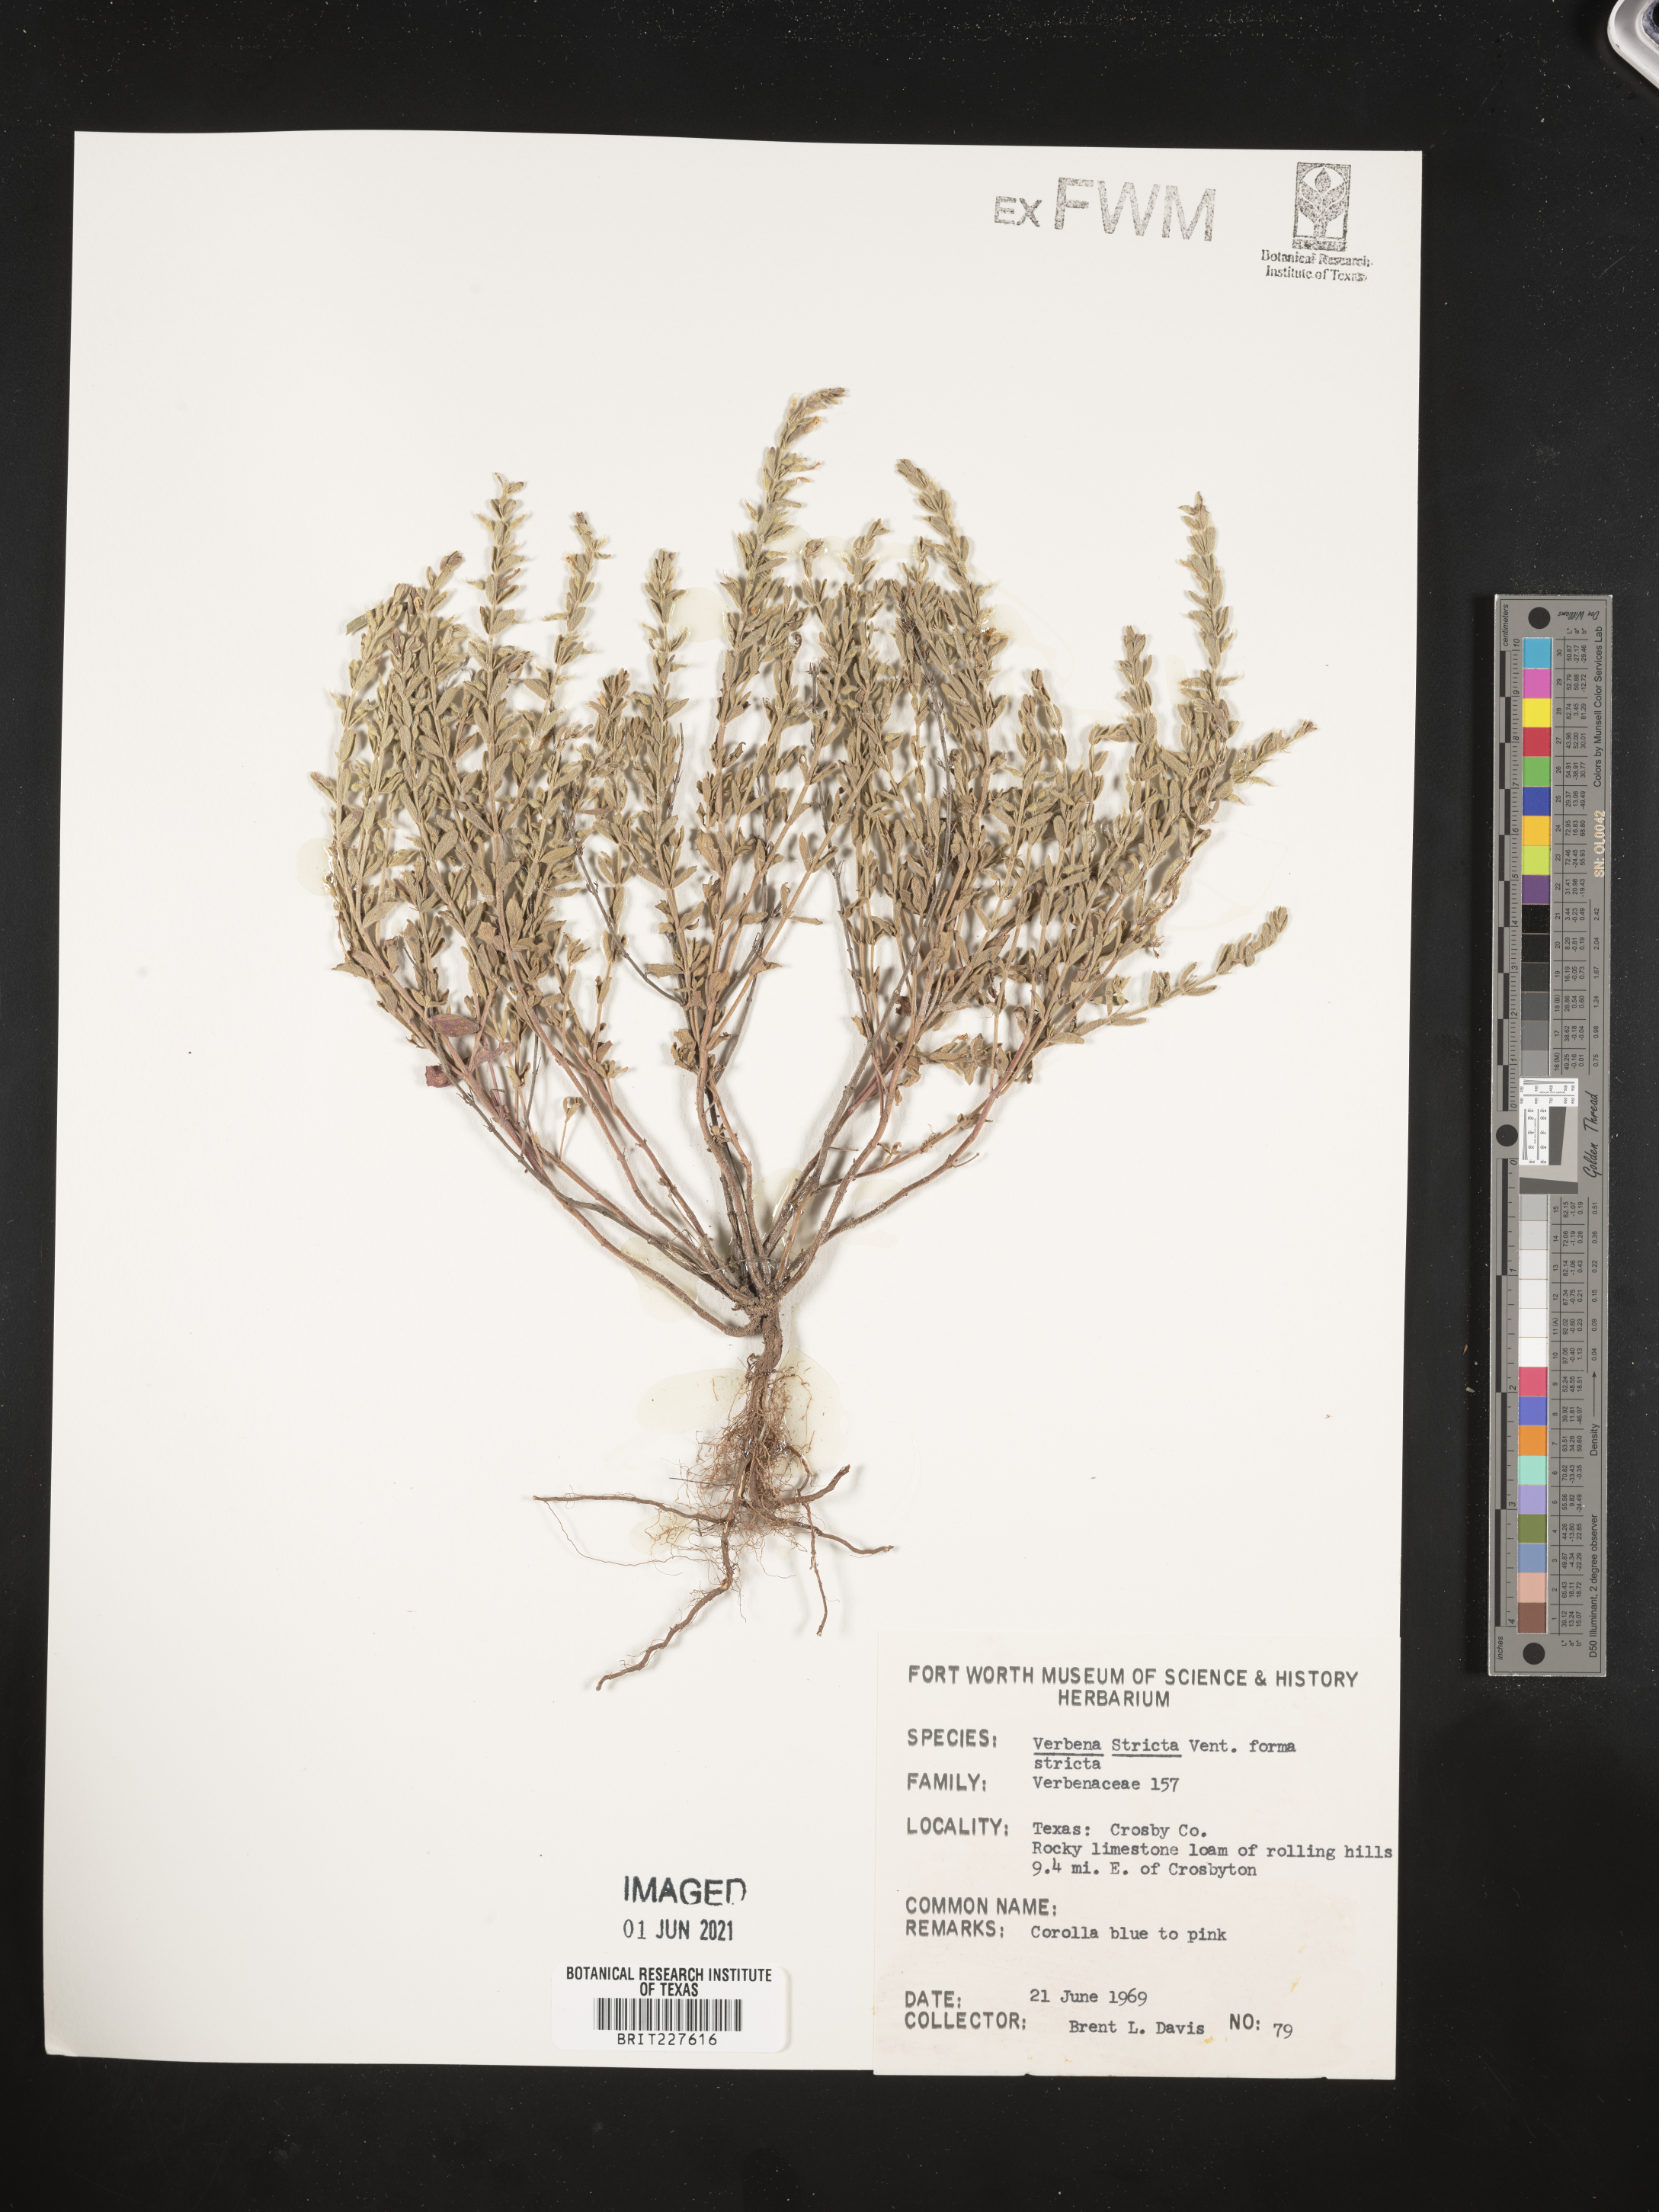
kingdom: Plantae
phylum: Tracheophyta
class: Magnoliopsida
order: Lamiales
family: Verbenaceae
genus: Verbena
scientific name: Verbena stricta
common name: Hoary vervain
